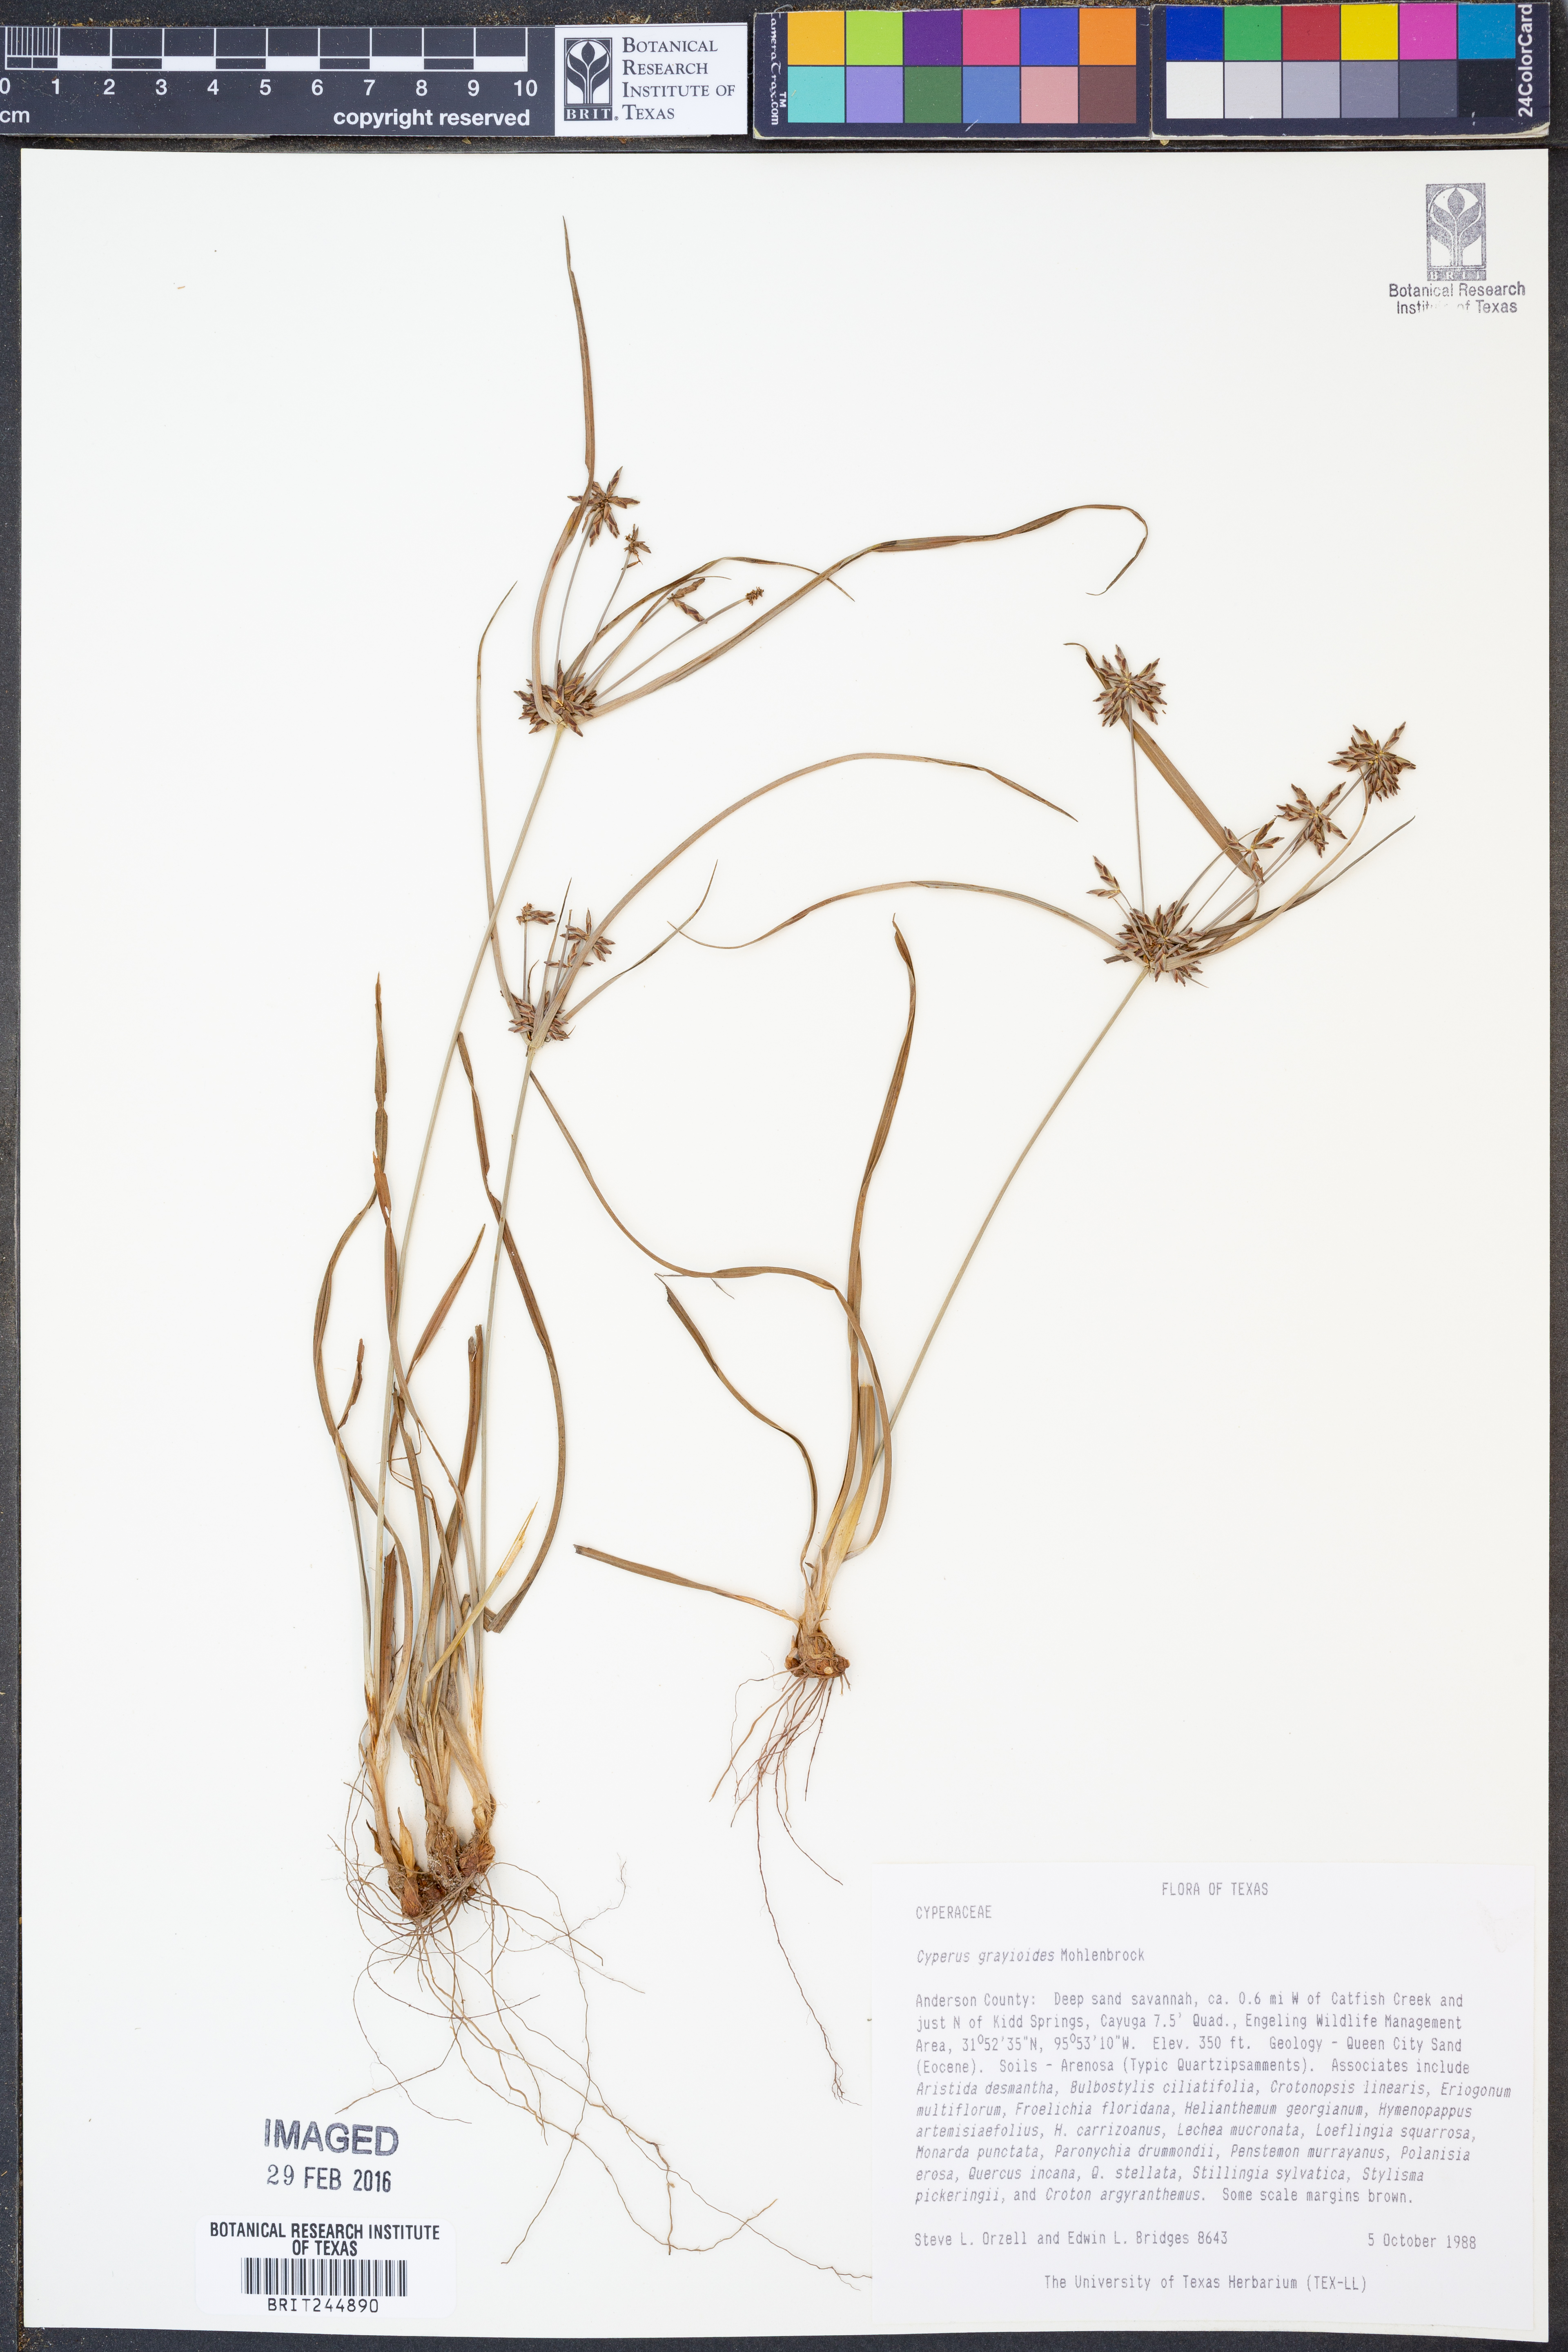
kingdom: Plantae
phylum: Tracheophyta
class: Liliopsida
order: Poales
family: Cyperaceae
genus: Cyperus
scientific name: Cyperus grayioides
